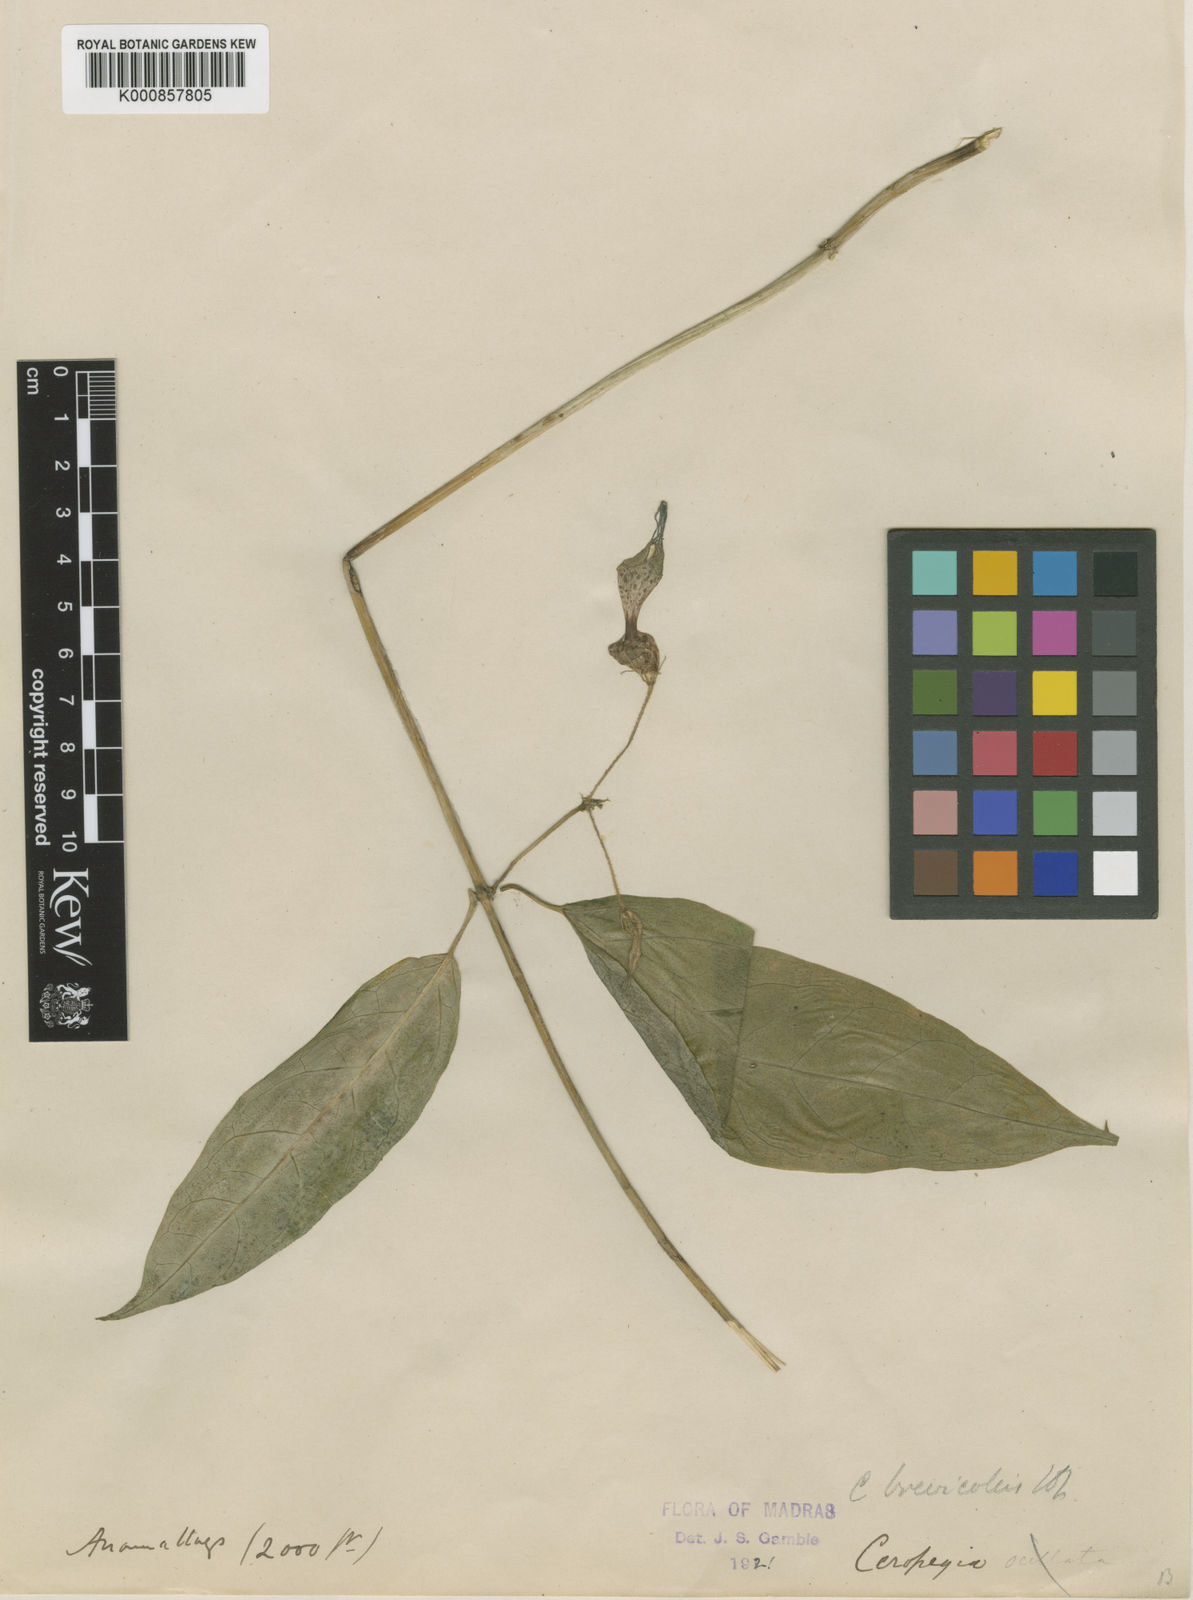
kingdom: Plantae
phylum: Tracheophyta
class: Magnoliopsida
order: Gentianales
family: Apocynaceae
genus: Ceropegia
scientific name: Ceropegia decaisneana
